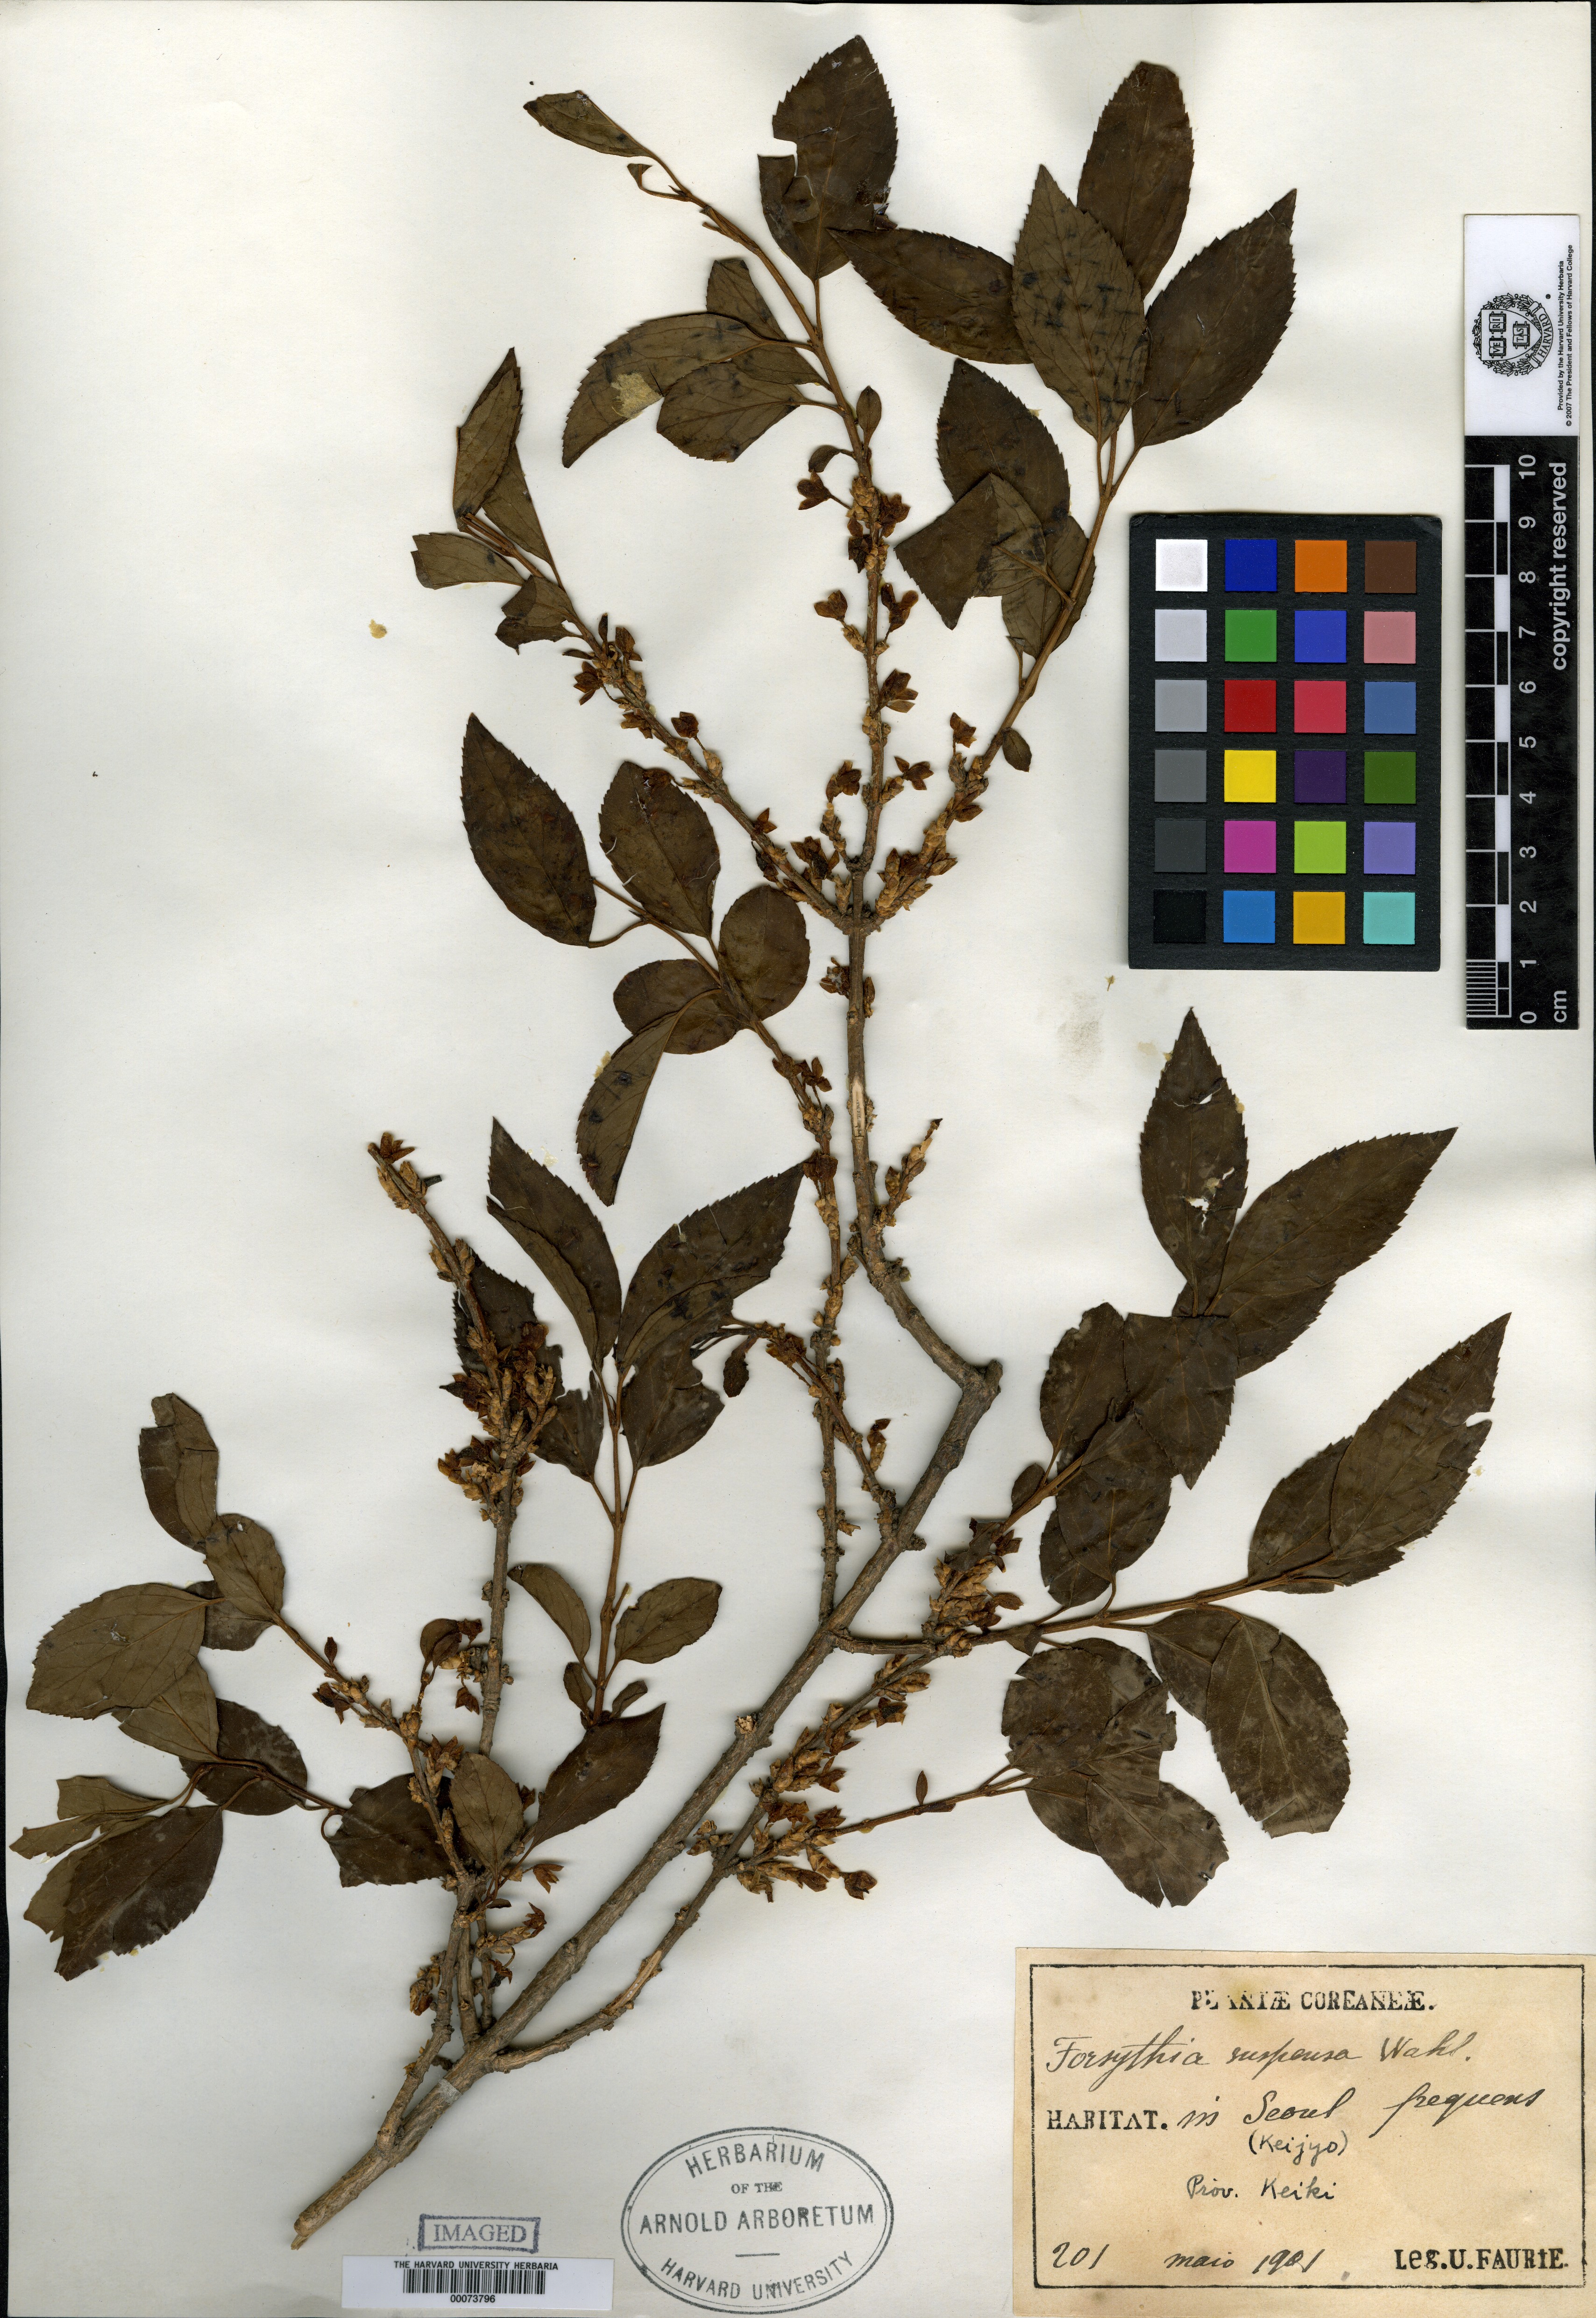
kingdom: Plantae
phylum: Tracheophyta
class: Magnoliopsida
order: Lamiales
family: Oleaceae
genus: Forsythia
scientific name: Forsythia koreana
